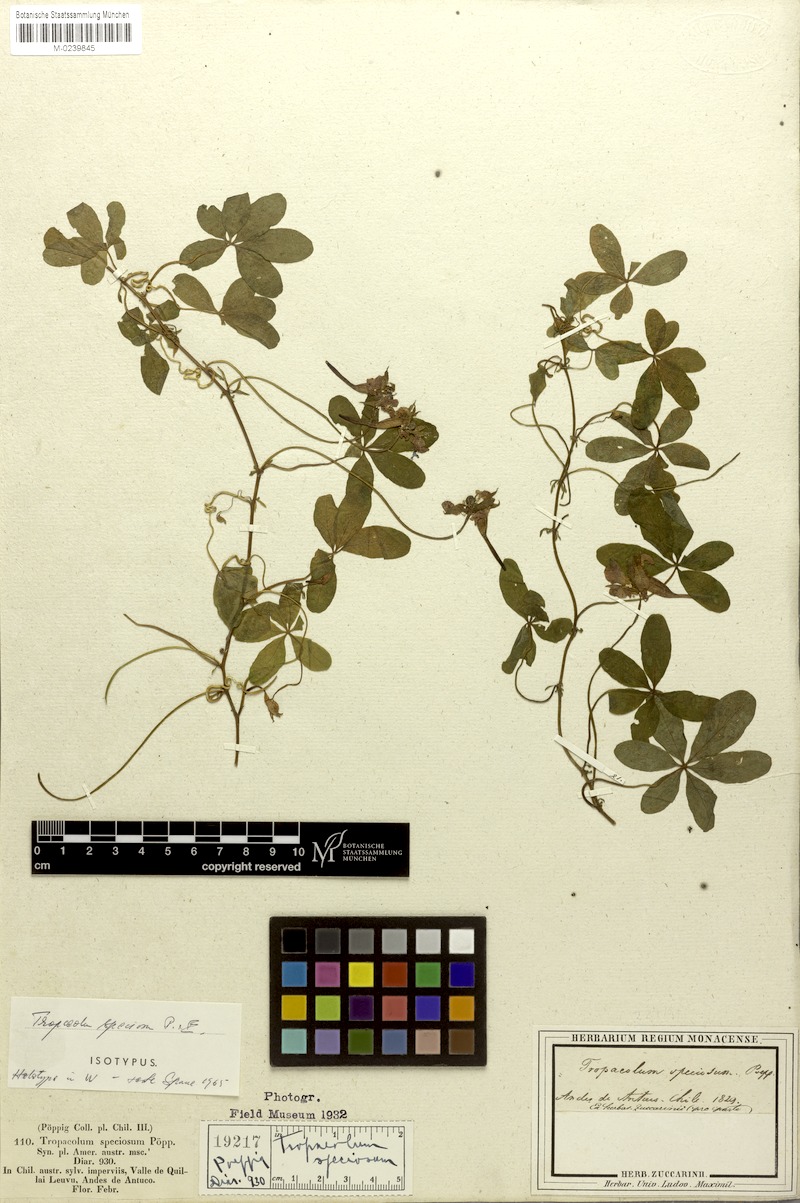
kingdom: Plantae
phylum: Tracheophyta
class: Magnoliopsida
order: Brassicales
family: Tropaeolaceae
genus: Tropaeolum
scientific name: Tropaeolum speciosum
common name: Flame nasturtium
